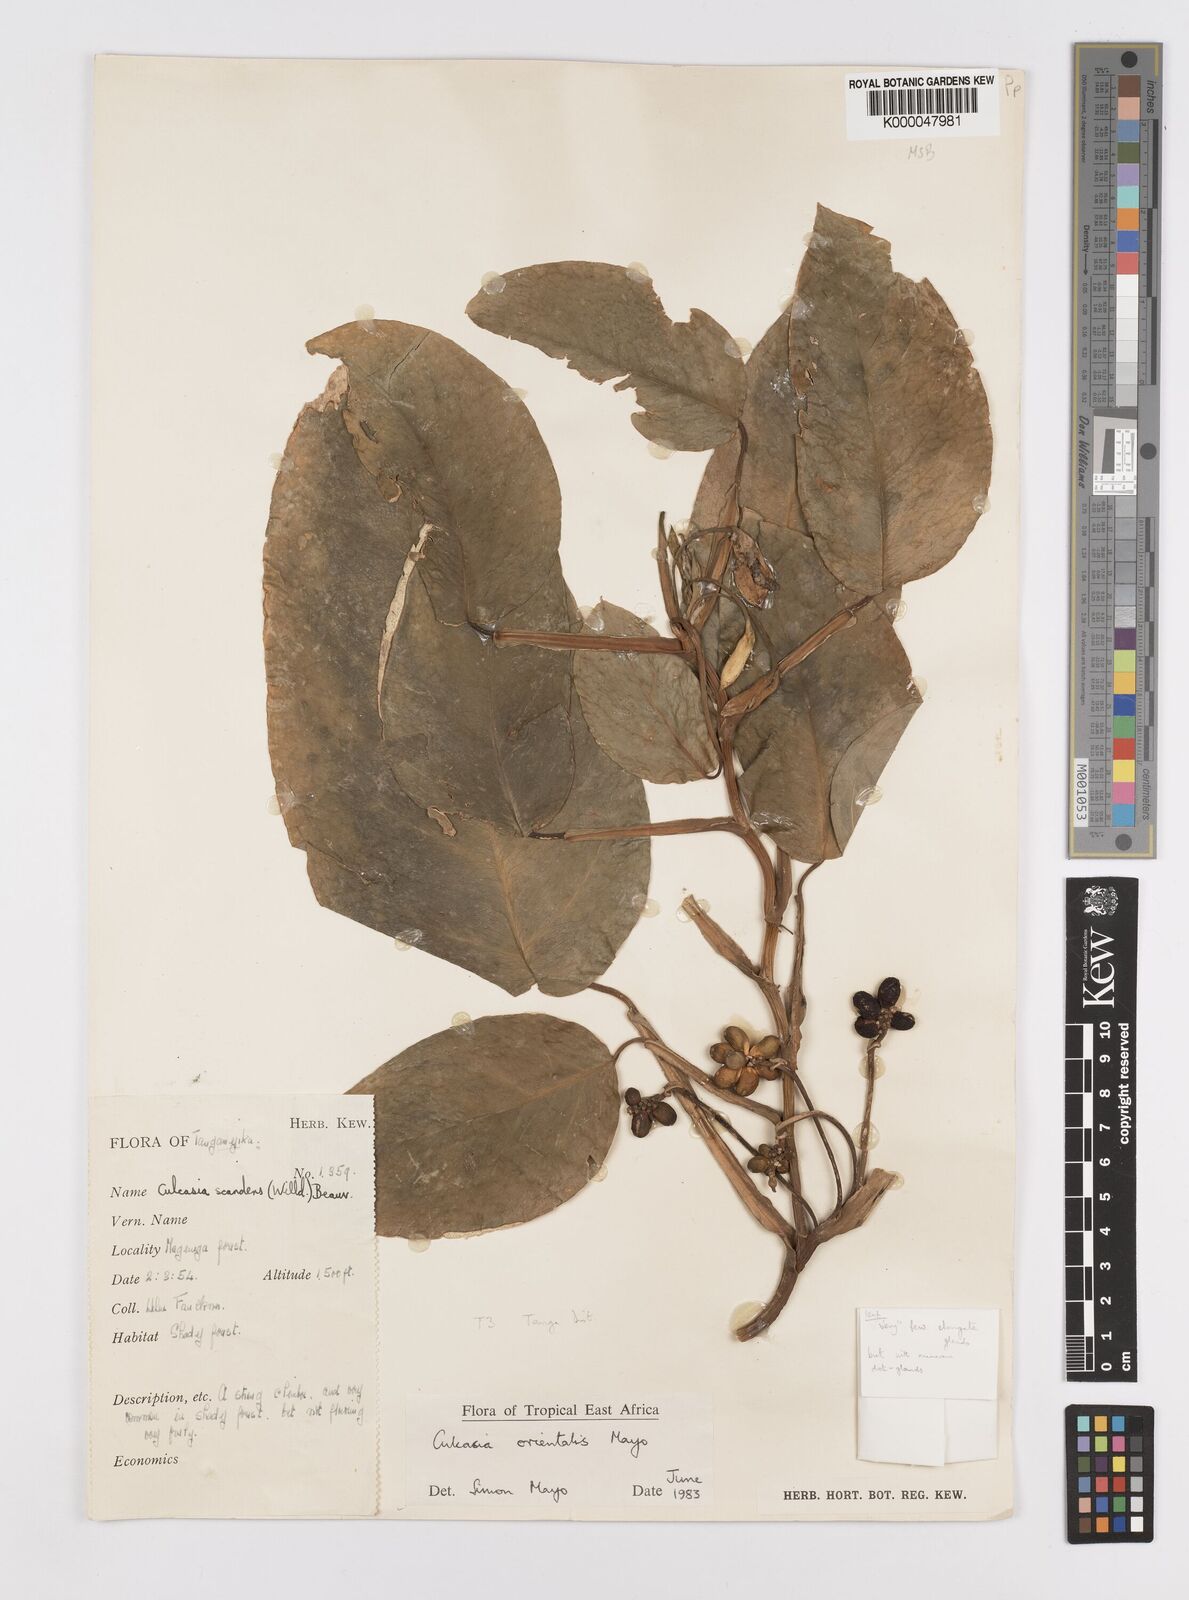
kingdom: Plantae
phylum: Tracheophyta
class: Liliopsida
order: Alismatales
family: Araceae
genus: Culcasia
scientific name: Culcasia orientalis
